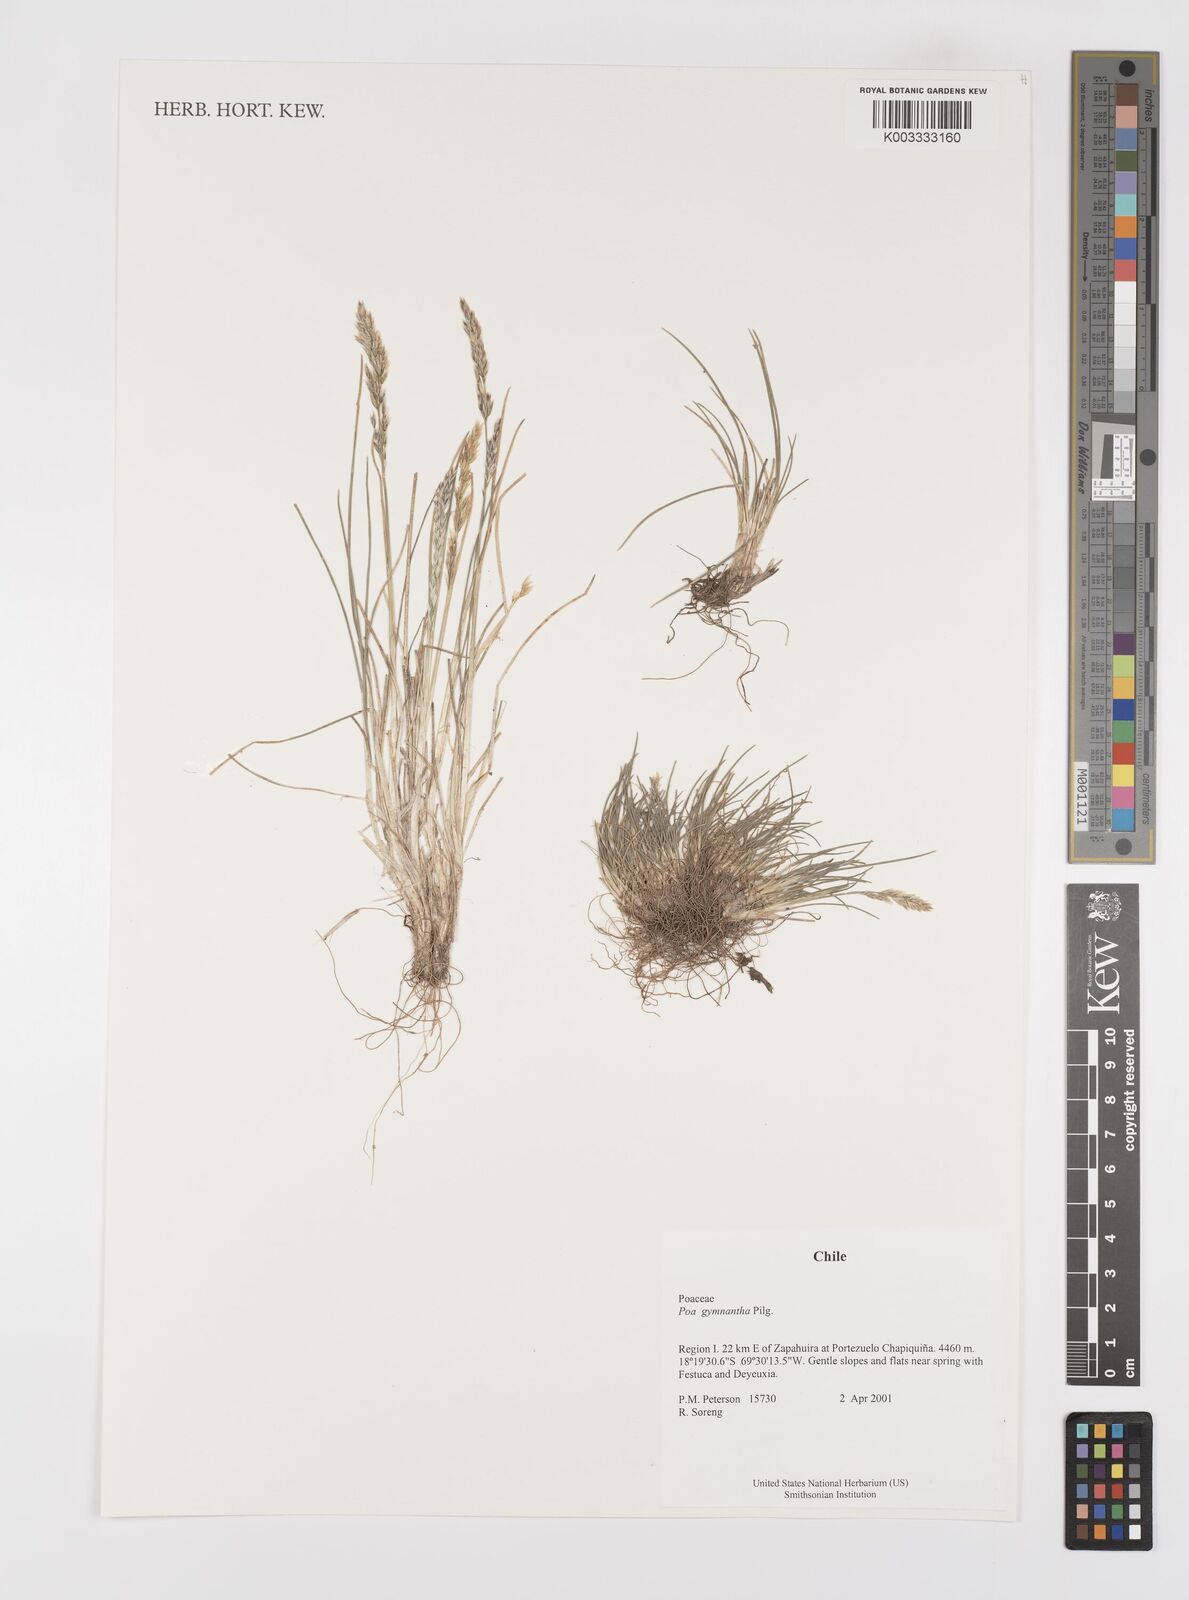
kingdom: Plantae
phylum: Tracheophyta
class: Liliopsida
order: Poales
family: Poaceae
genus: Polypogon
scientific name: Polypogon australis
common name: Chilean rabbitsfoot grass
